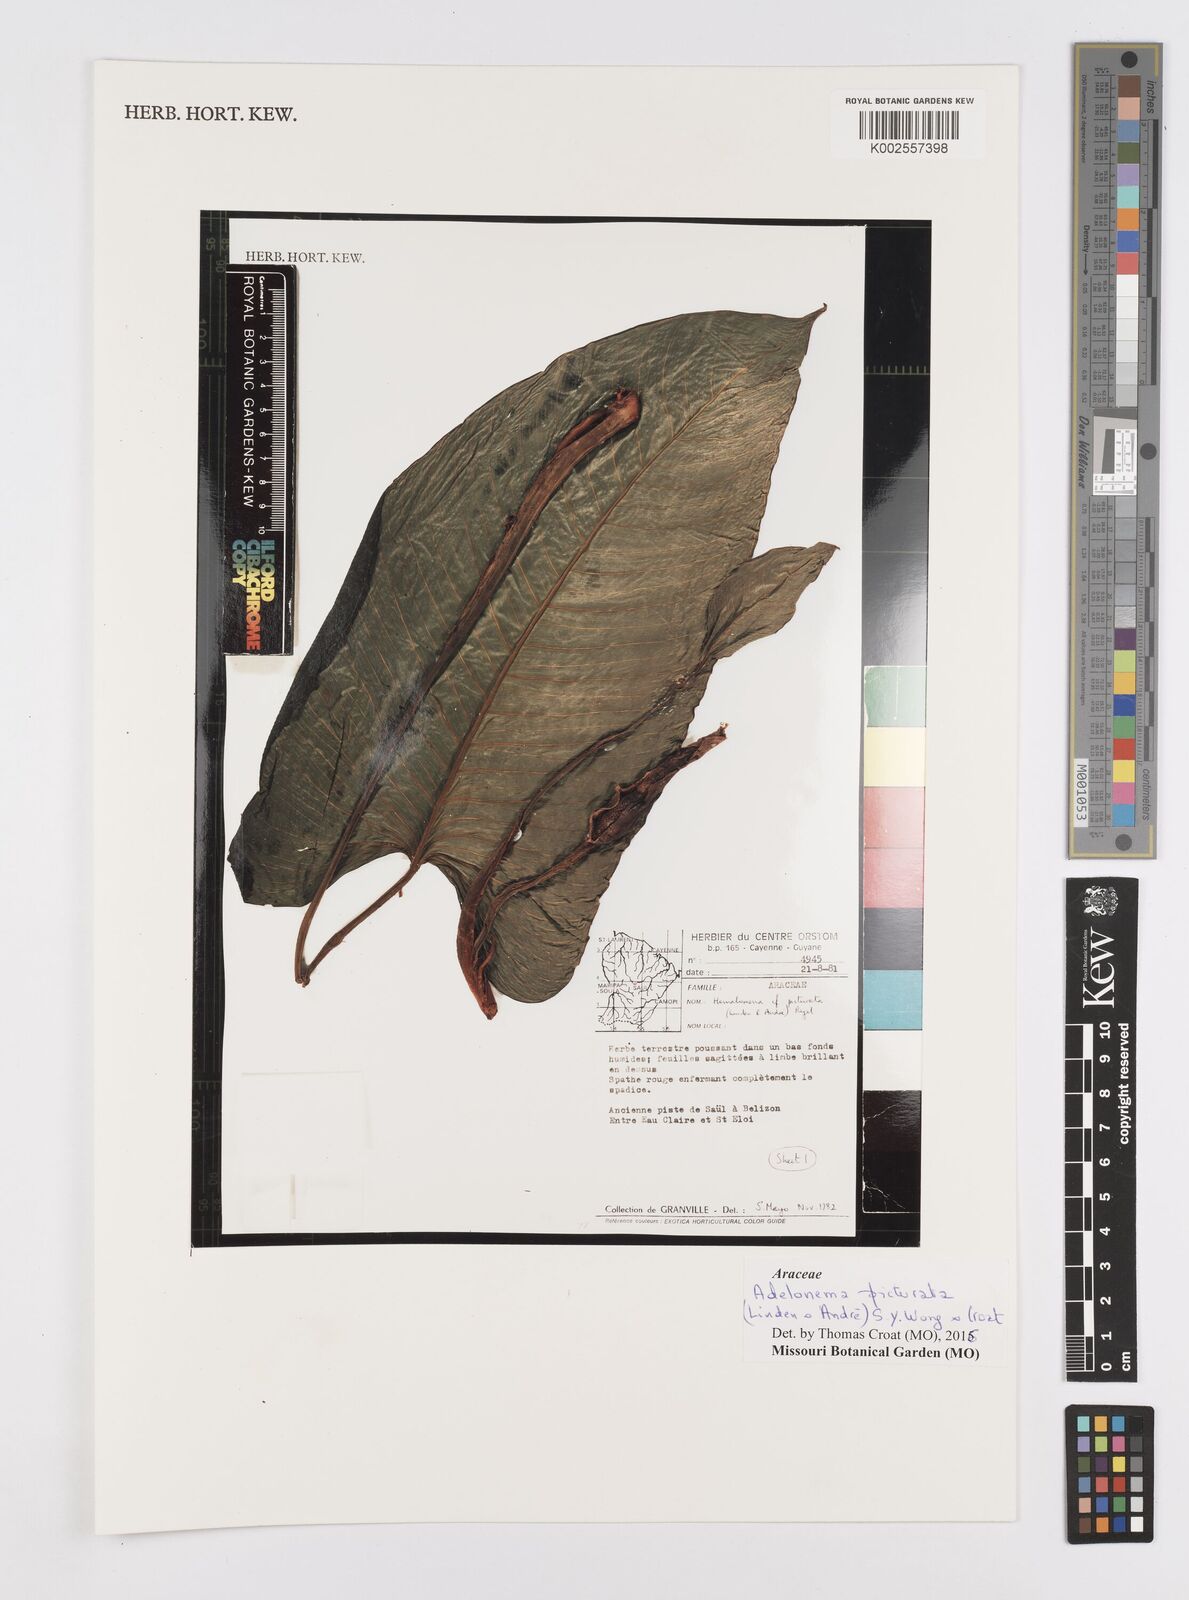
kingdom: Plantae
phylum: Tracheophyta
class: Liliopsida
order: Alismatales
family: Araceae
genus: Adelonema
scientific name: Adelonema picturatum
